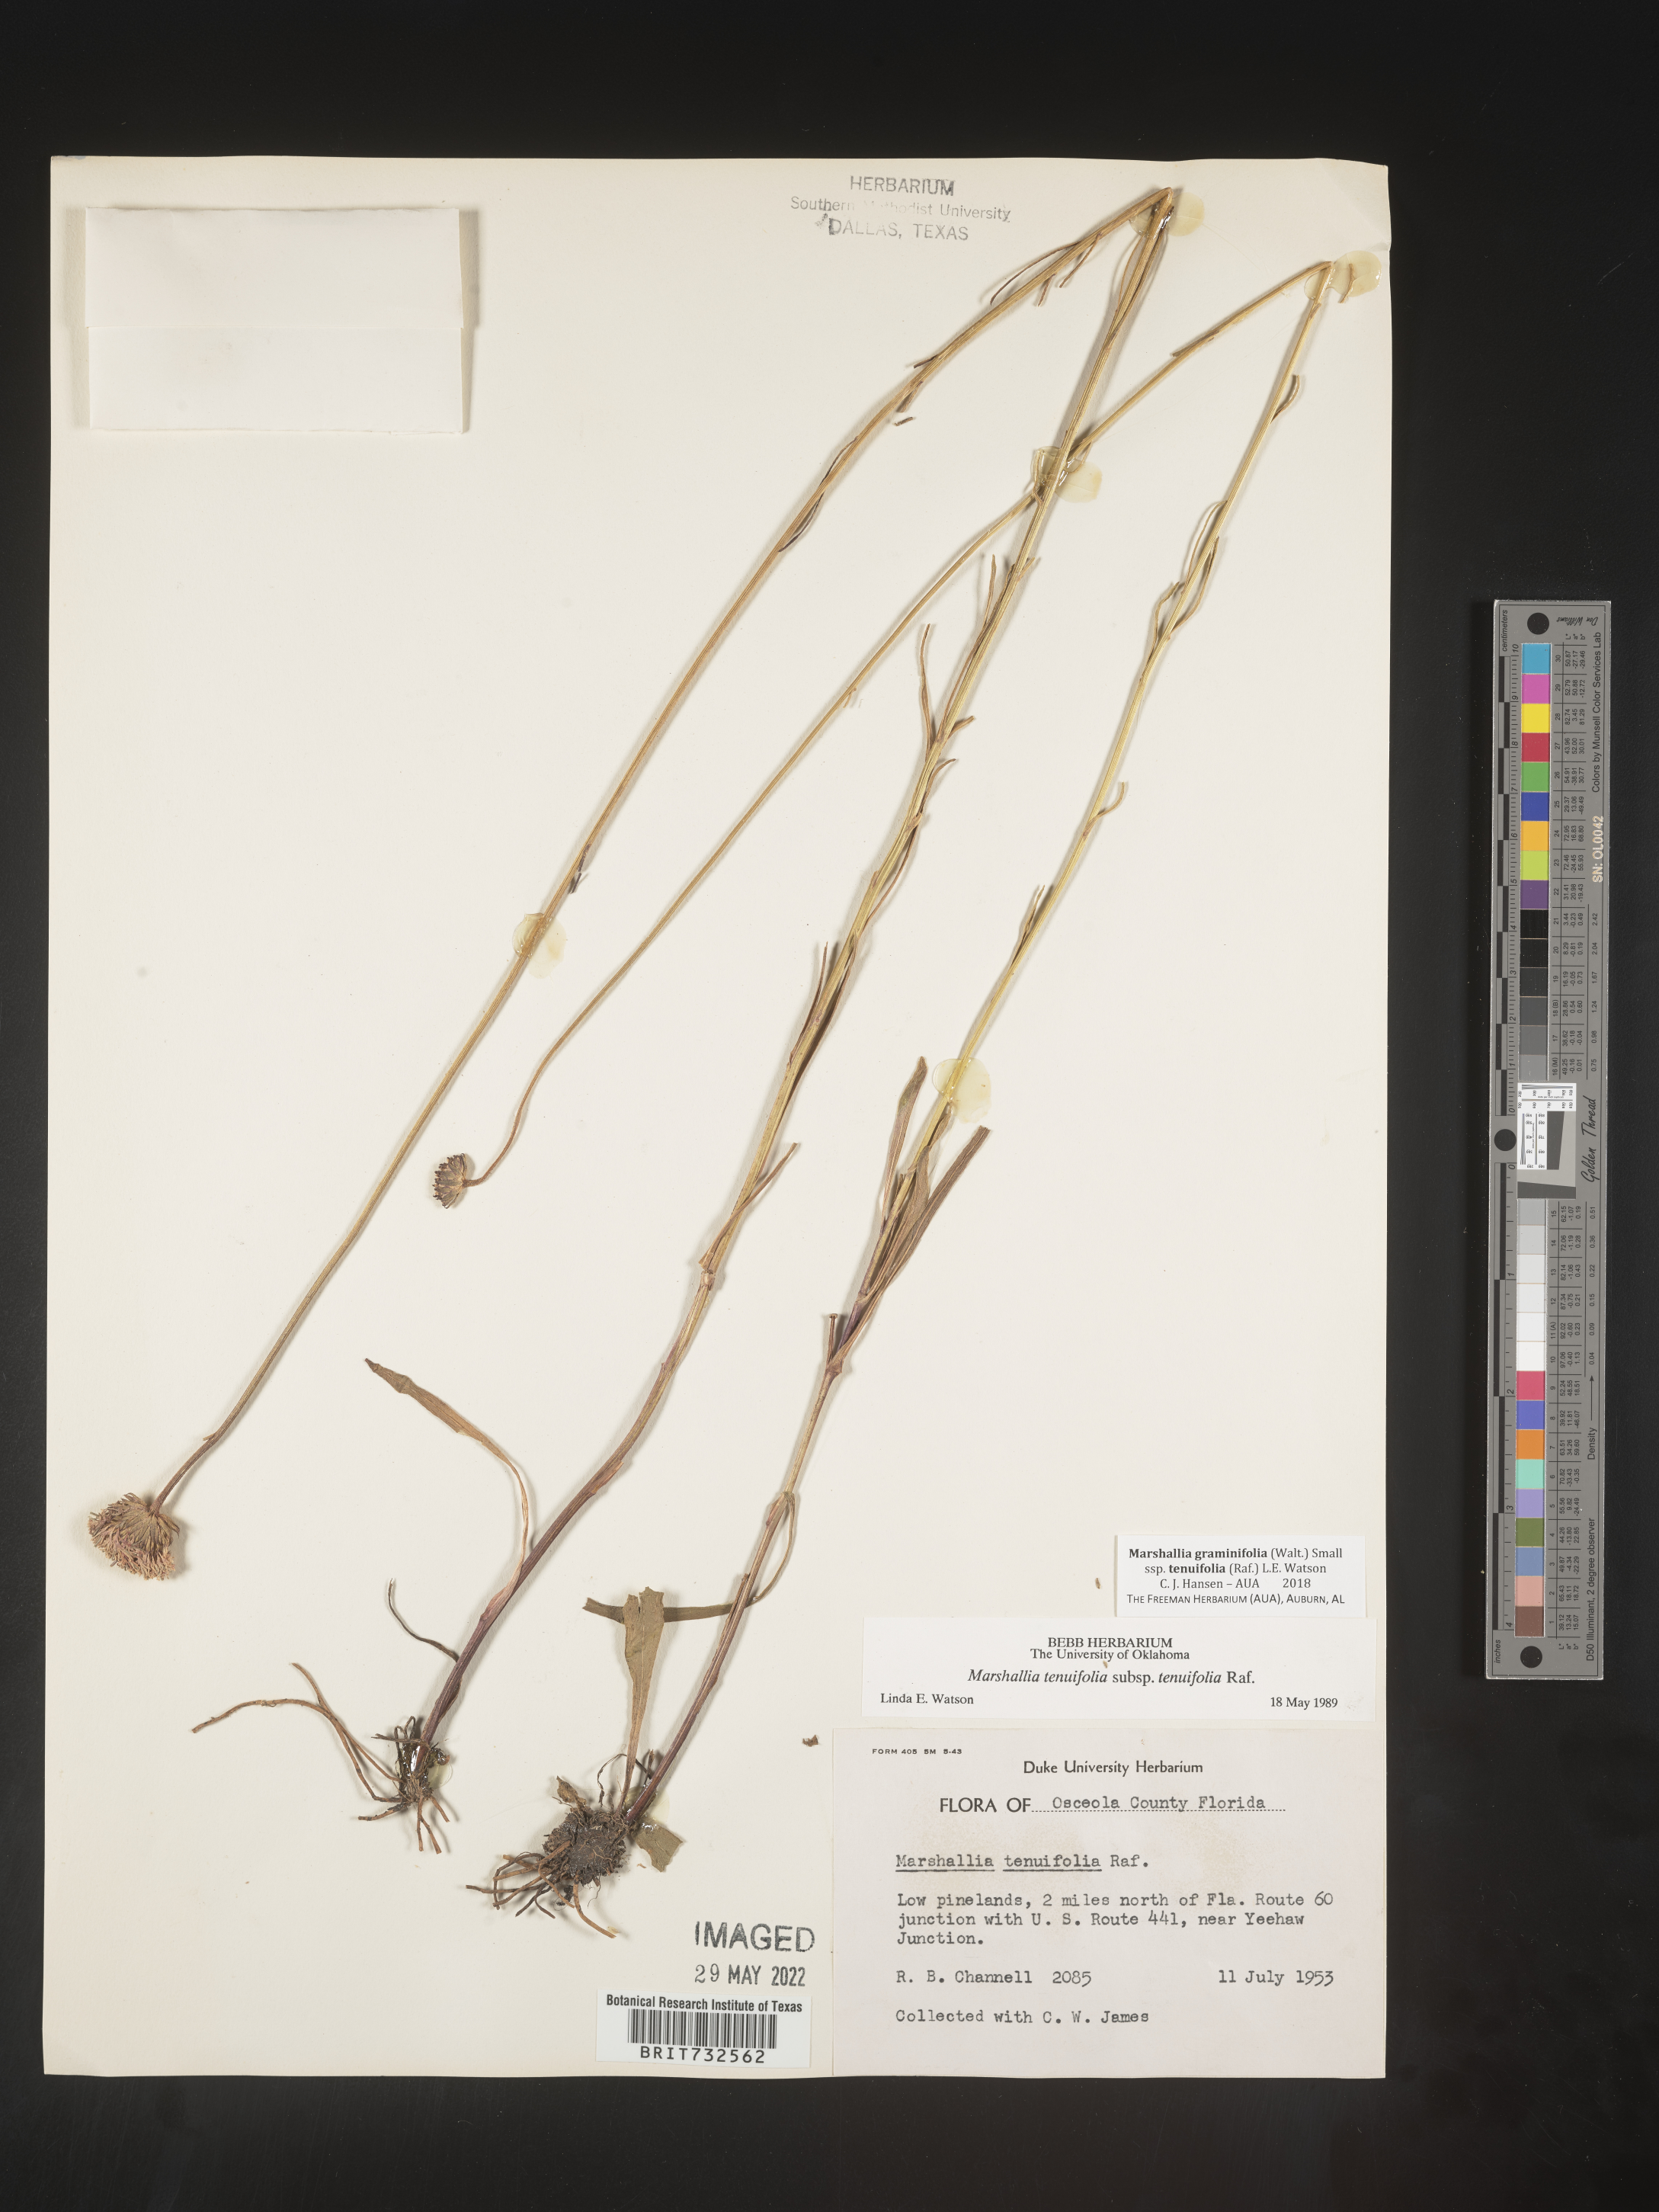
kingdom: Plantae
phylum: Tracheophyta
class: Magnoliopsida
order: Asterales
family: Asteraceae
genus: Marshallia
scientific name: Marshallia graminifolia
